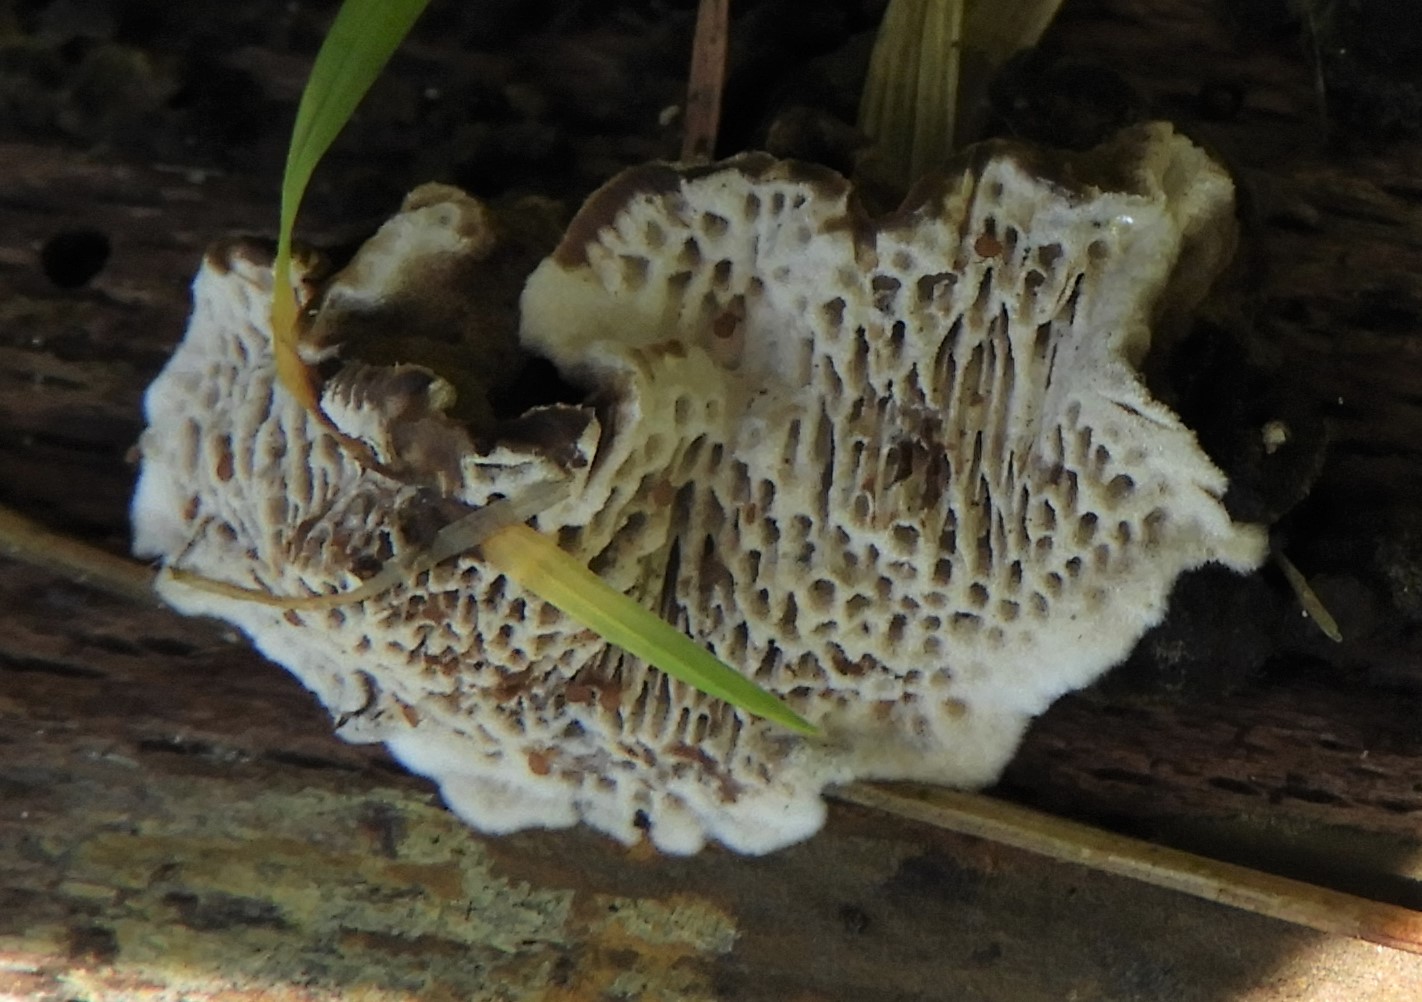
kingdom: Fungi
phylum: Basidiomycota
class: Agaricomycetes
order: Polyporales
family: Polyporaceae
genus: Podofomes
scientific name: Podofomes mollis
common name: blød begporesvamp
